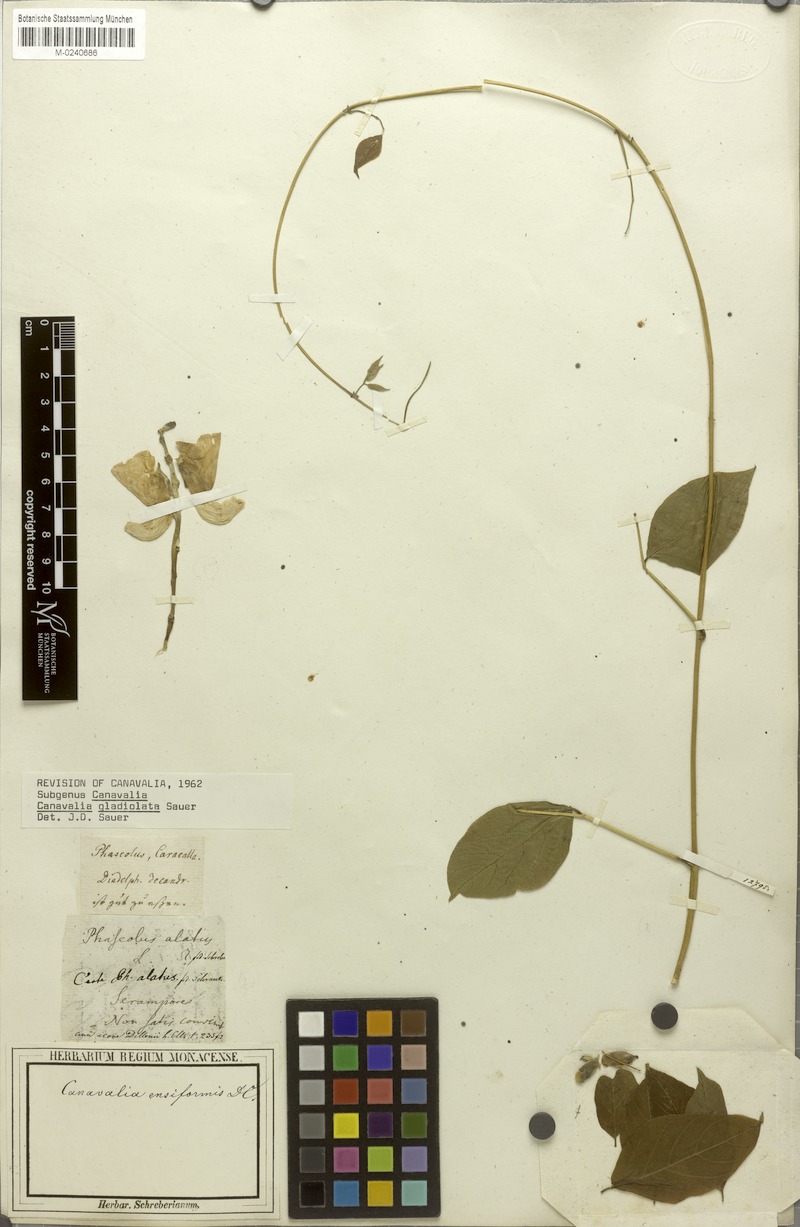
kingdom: Plantae
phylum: Tracheophyta
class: Magnoliopsida
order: Fabales
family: Fabaceae
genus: Canavalia
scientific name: Canavalia gladiata
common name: Scimitar-bean
